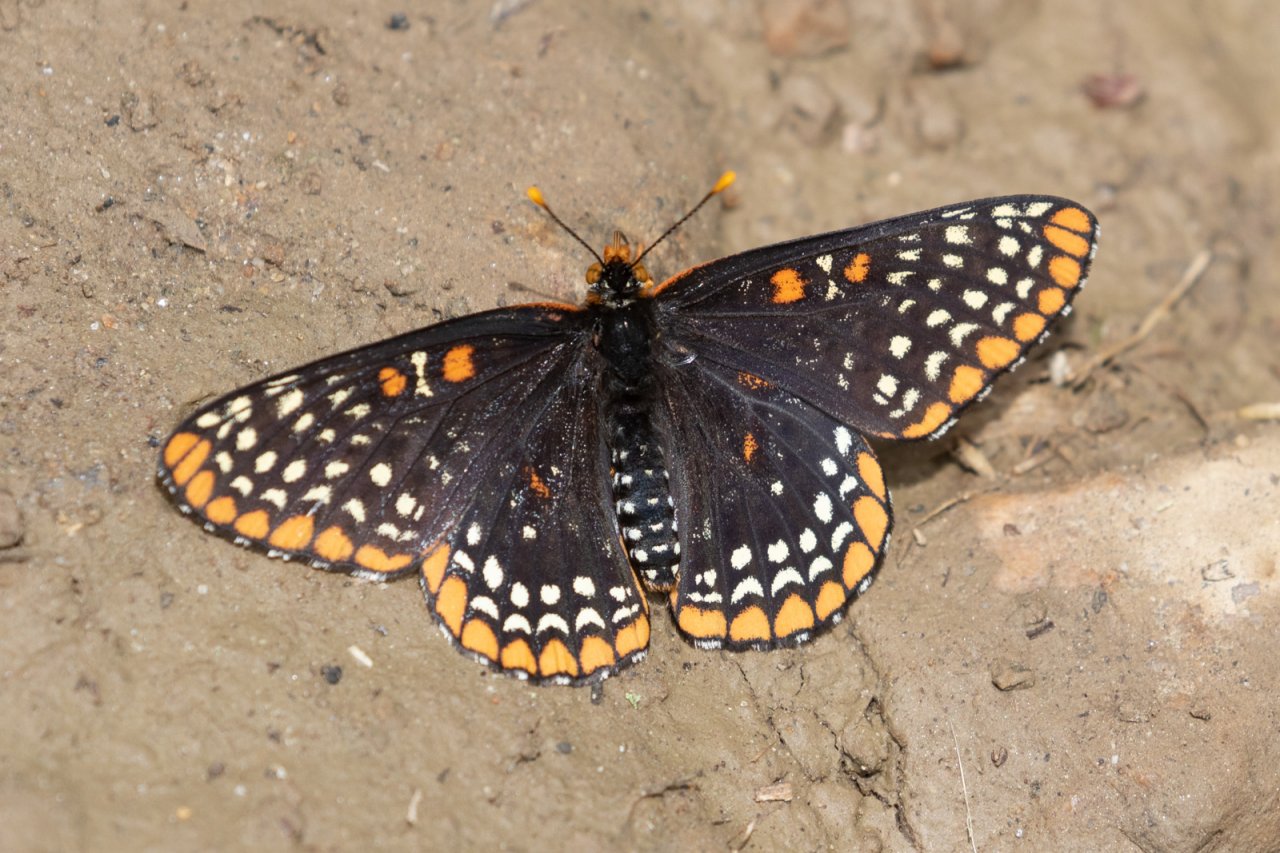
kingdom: Animalia
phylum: Arthropoda
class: Insecta
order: Lepidoptera
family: Nymphalidae
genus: Euphydryas
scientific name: Euphydryas phaeton
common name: Baltimore Checkerspot
